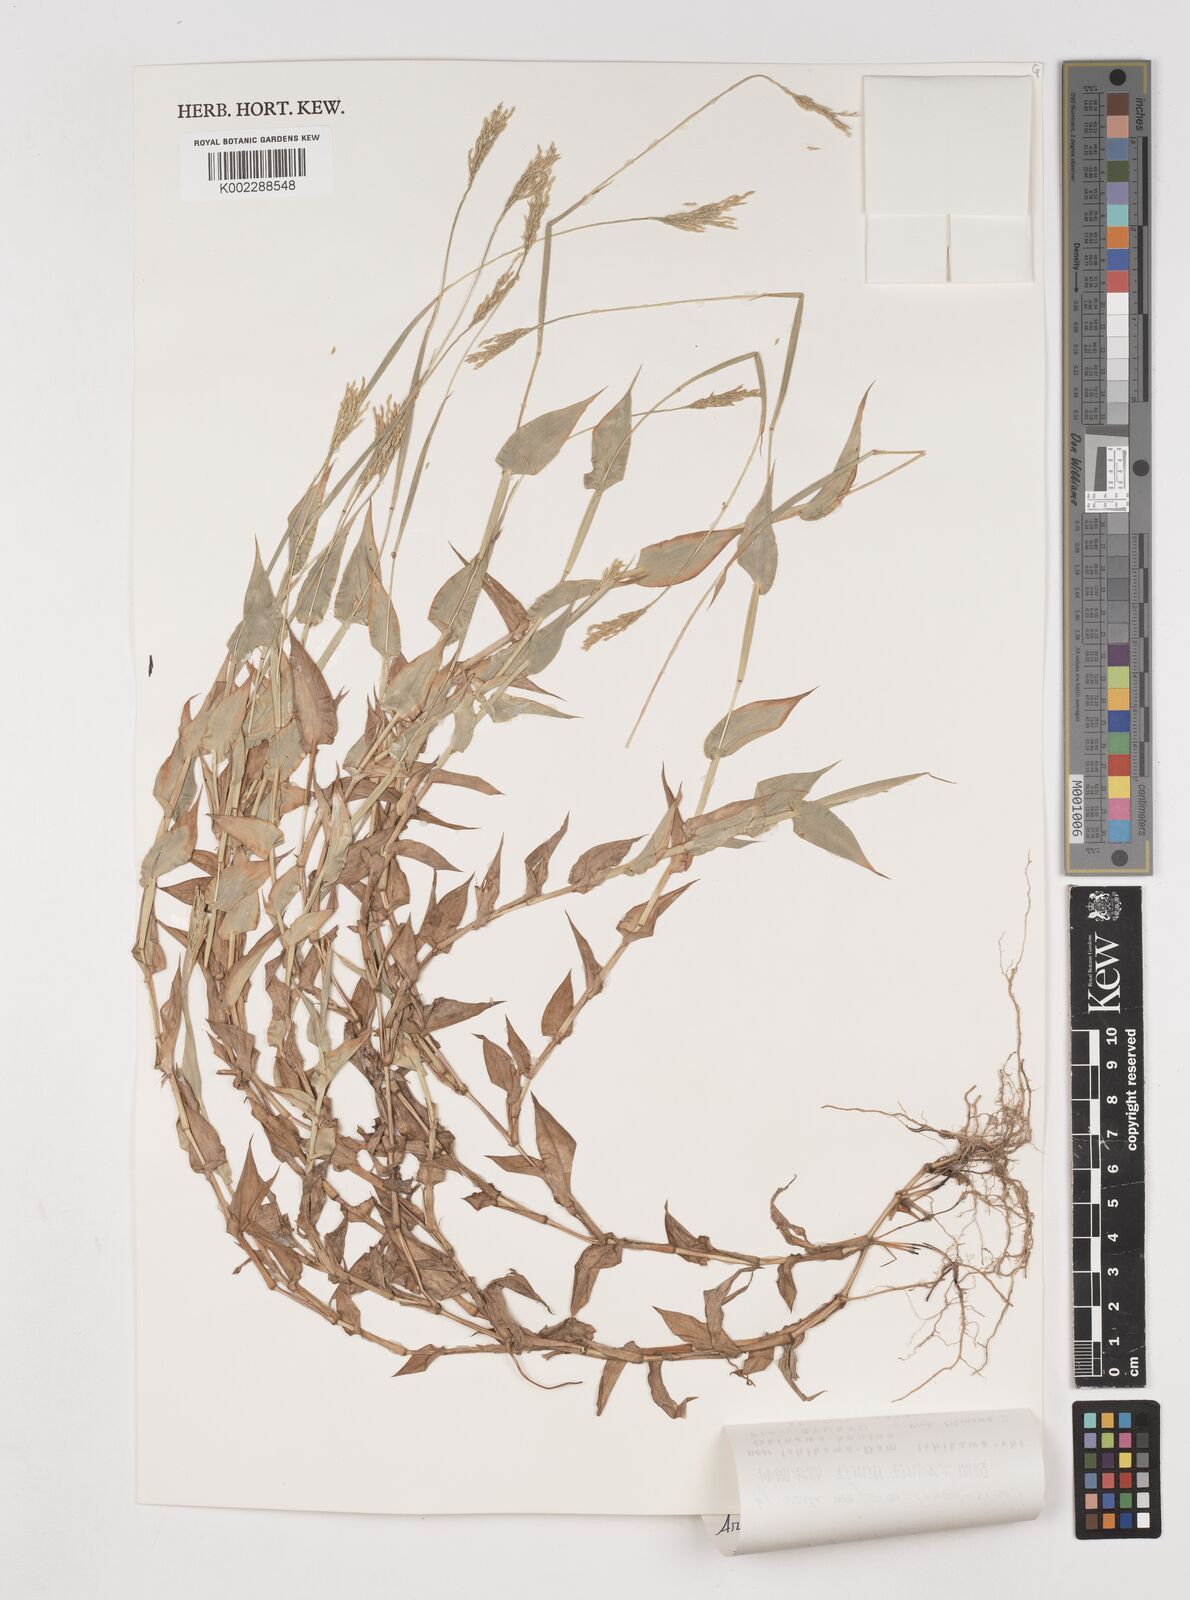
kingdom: Plantae
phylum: Tracheophyta
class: Liliopsida
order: Poales
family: Poaceae
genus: Arthraxon
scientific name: Arthraxon hispidus
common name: Small carpgrass
